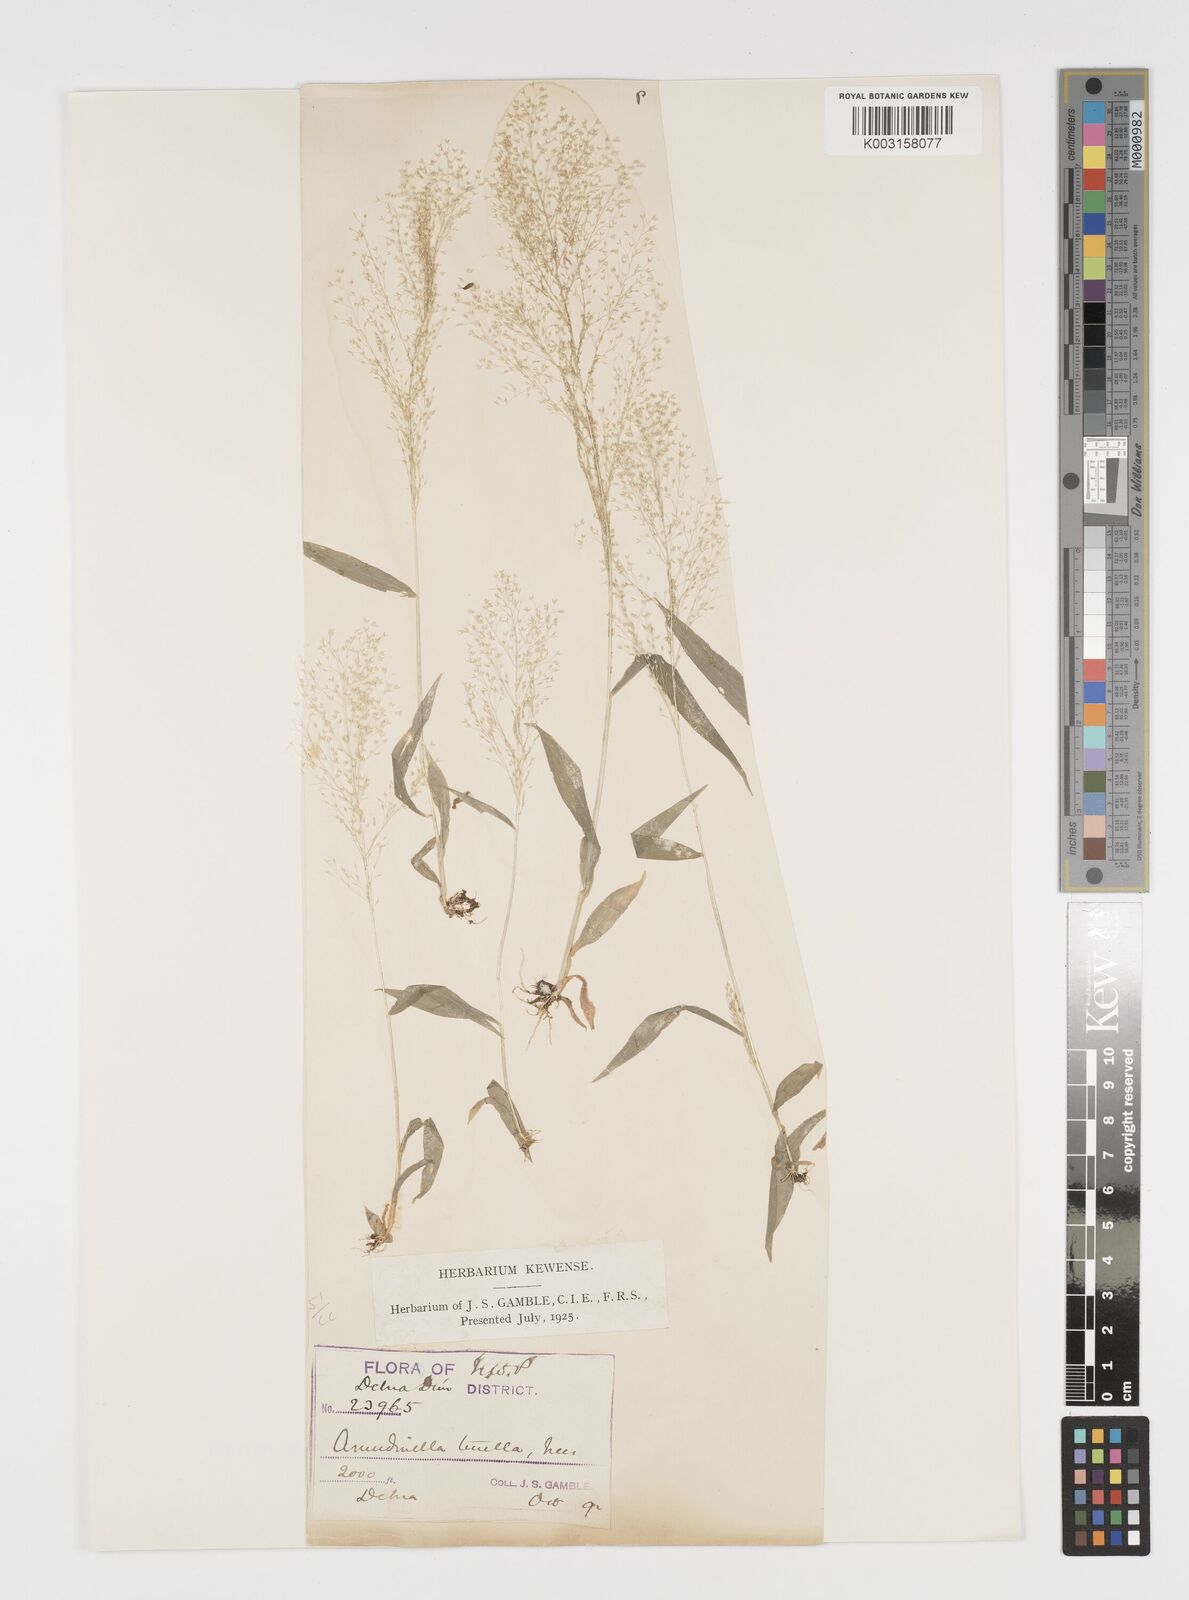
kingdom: Plantae
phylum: Tracheophyta
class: Liliopsida
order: Poales
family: Poaceae
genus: Arundinella
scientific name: Arundinella pumila
